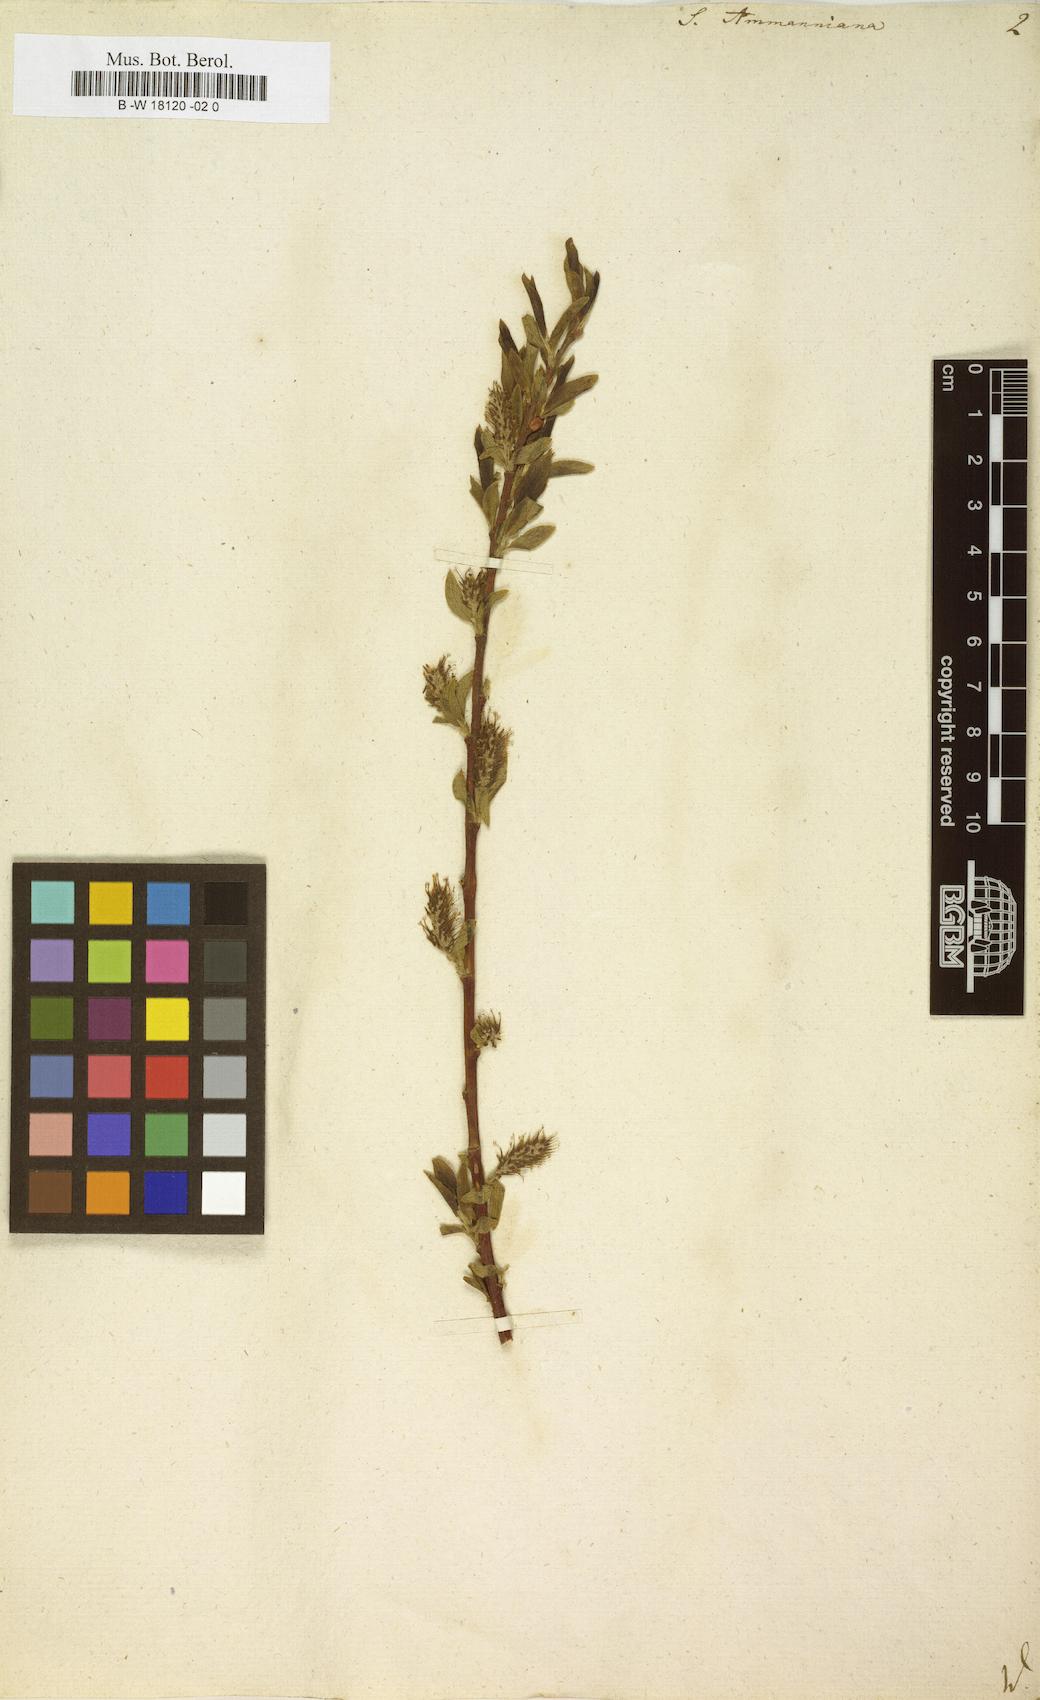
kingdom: Plantae
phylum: Tracheophyta
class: Magnoliopsida
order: Malpighiales
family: Salicaceae
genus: Salix
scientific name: Salix myrsinifolia
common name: Dark-leaved willow
